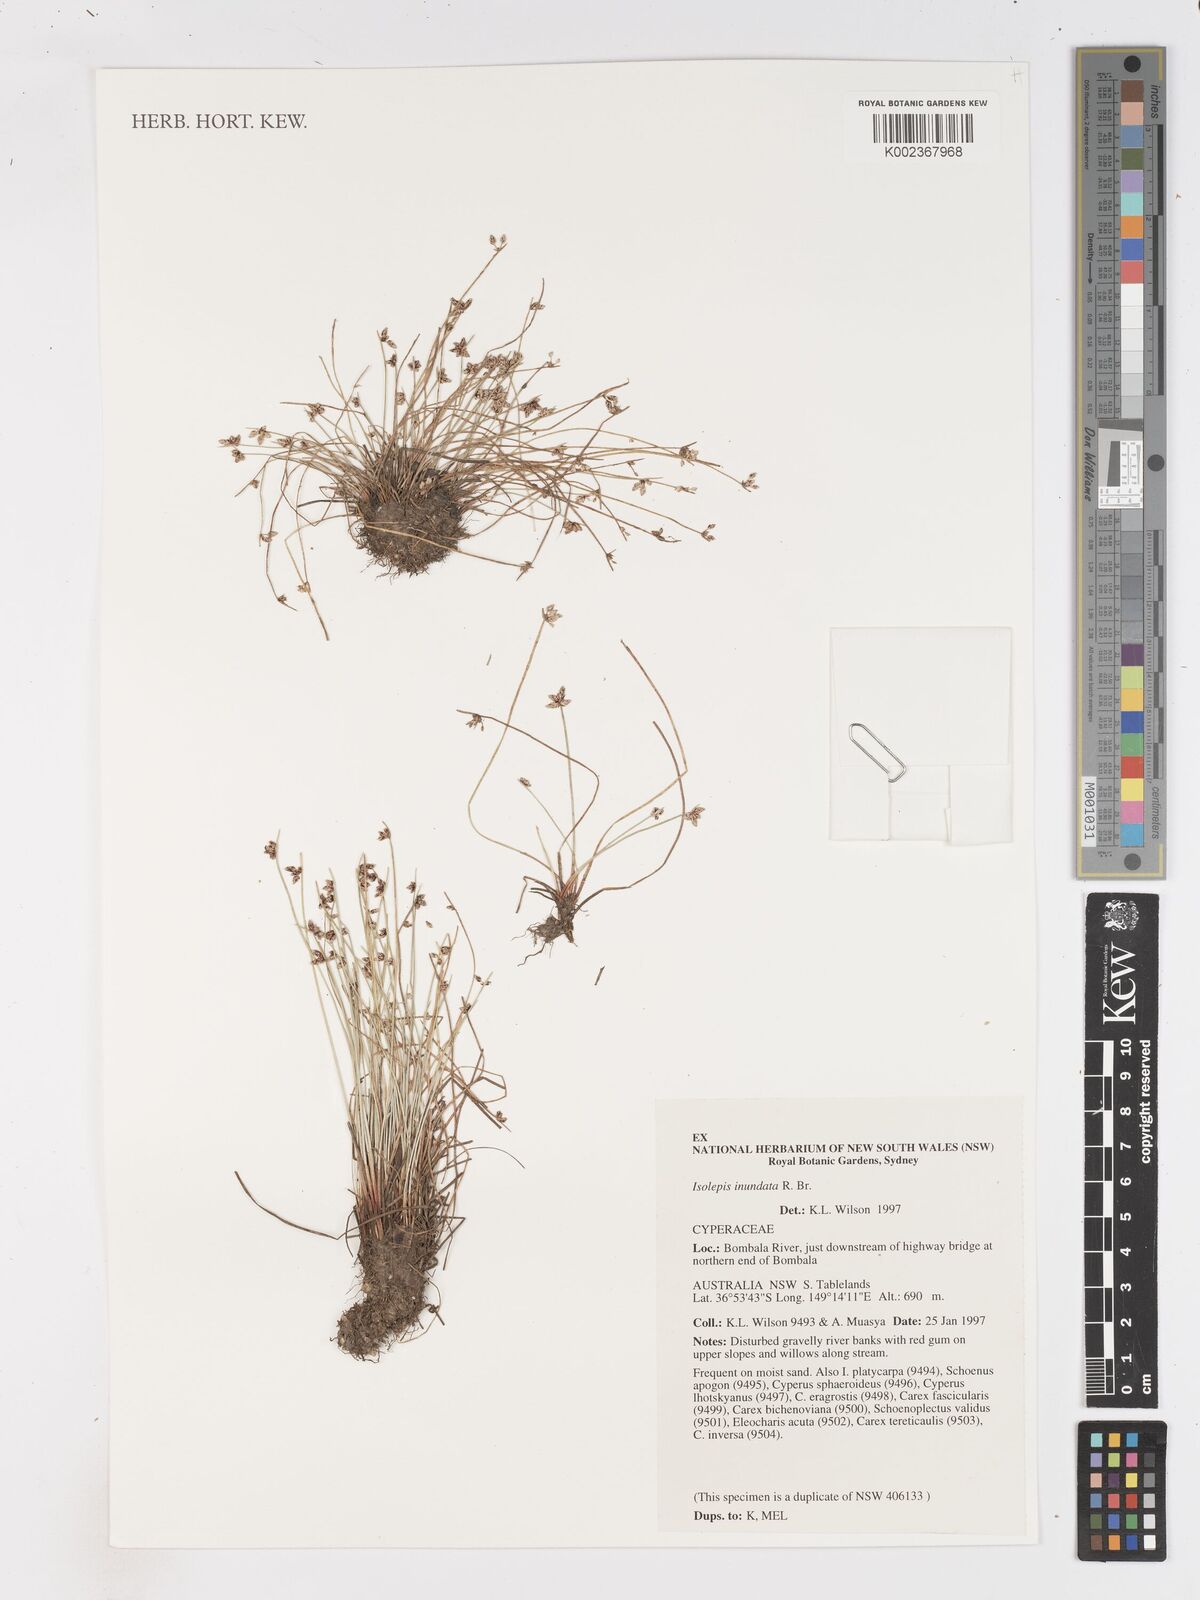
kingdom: Plantae
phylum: Tracheophyta
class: Liliopsida
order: Poales
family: Cyperaceae
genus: Isolepis
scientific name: Isolepis inundata
